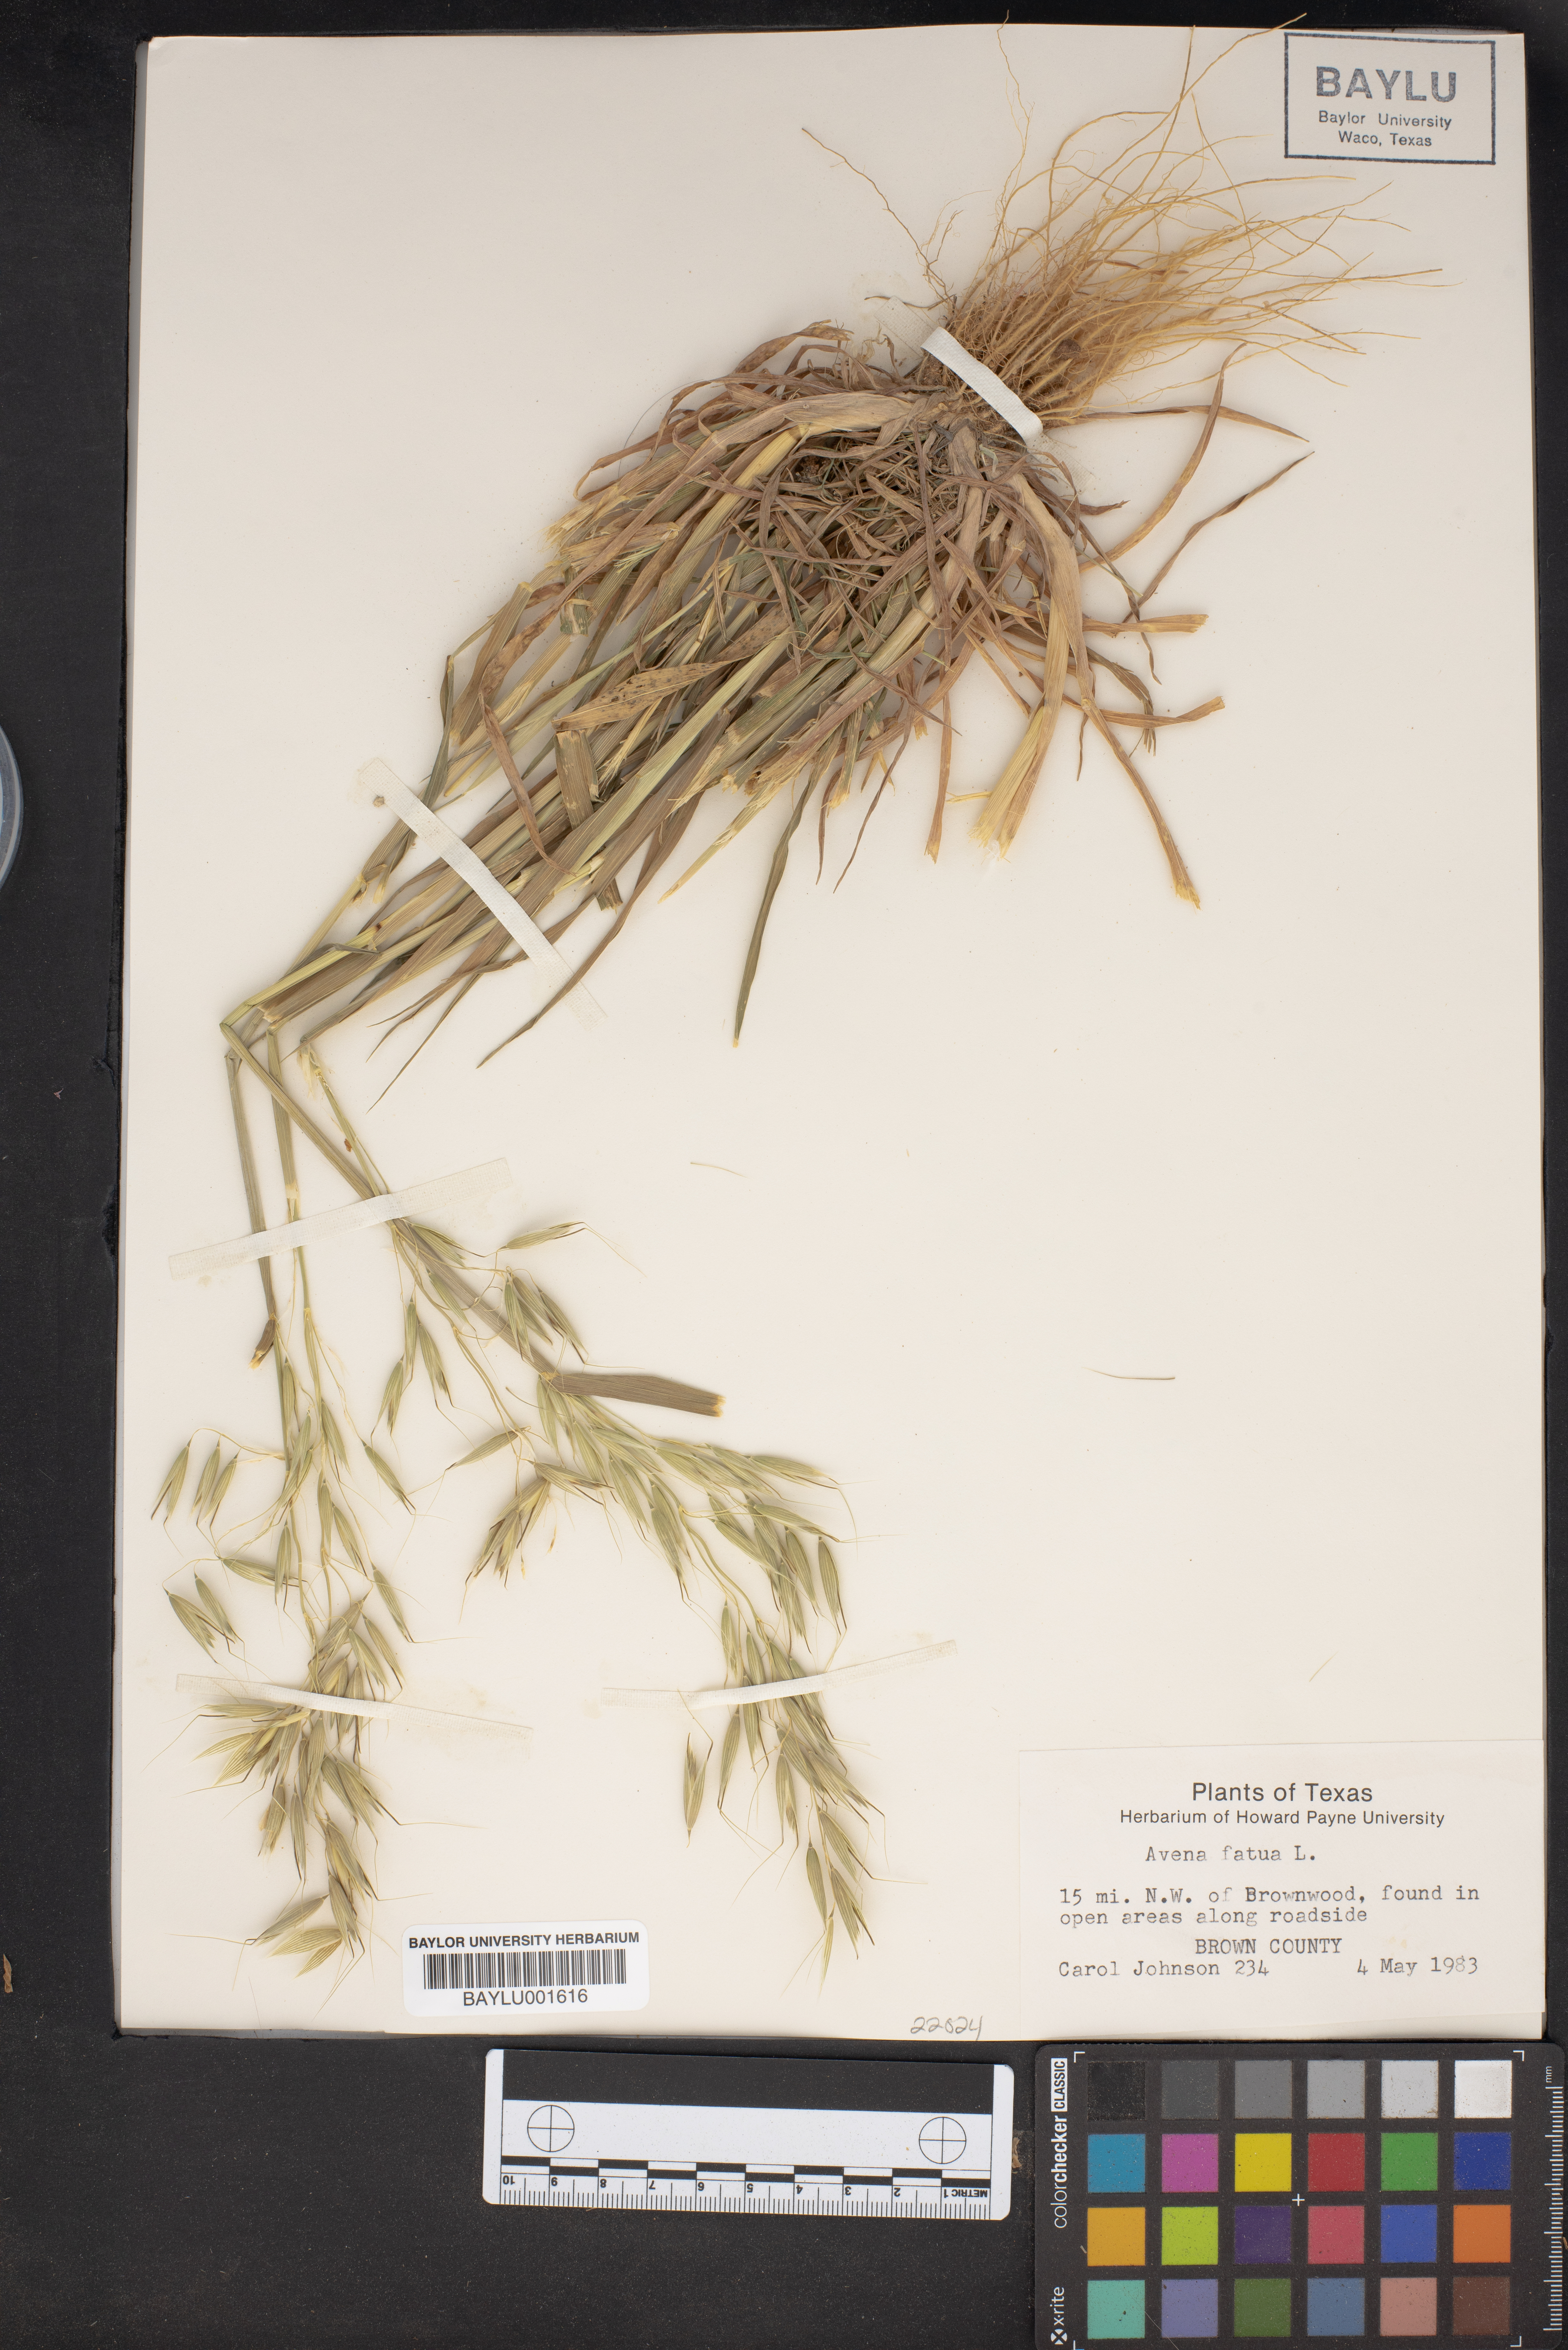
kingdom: Plantae
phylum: Tracheophyta
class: Liliopsida
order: Poales
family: Poaceae
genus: Avena
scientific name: Avena fatua
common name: Wild oat
